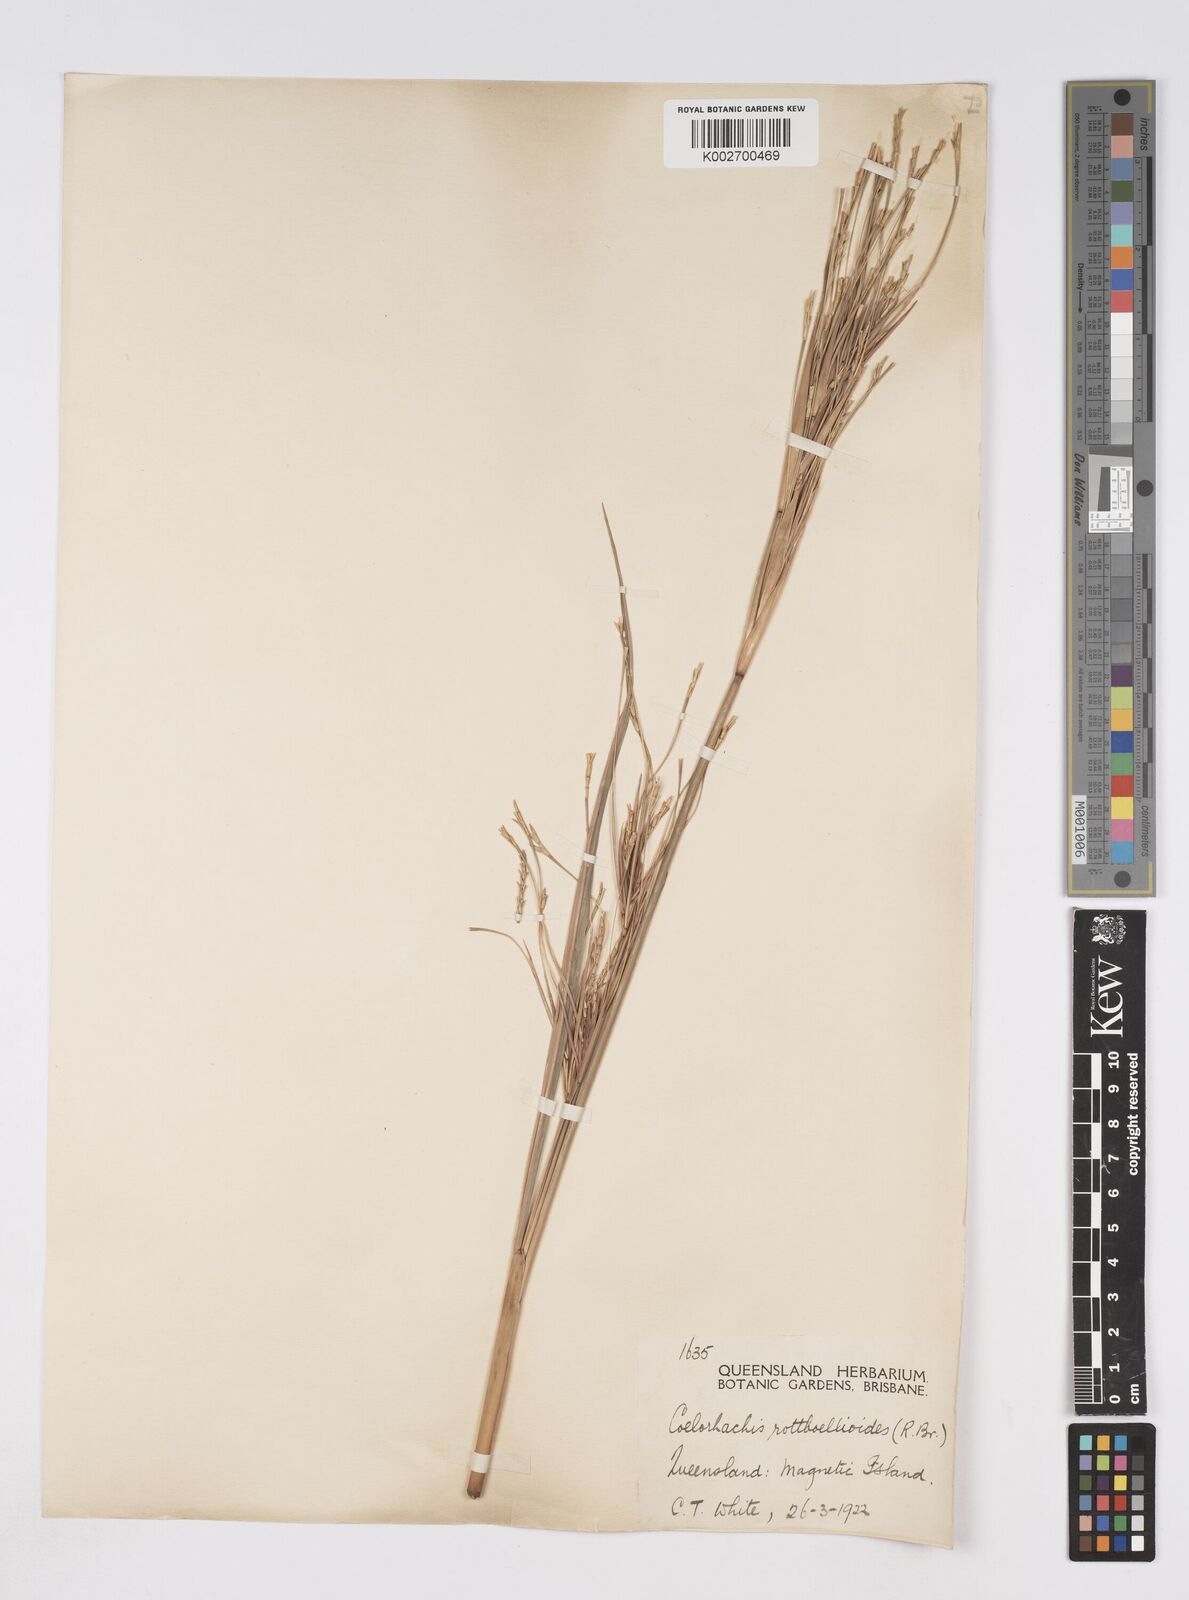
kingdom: Plantae
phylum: Tracheophyta
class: Liliopsida
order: Poales
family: Poaceae
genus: Rottboellia
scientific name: Rottboellia rottboellioides
